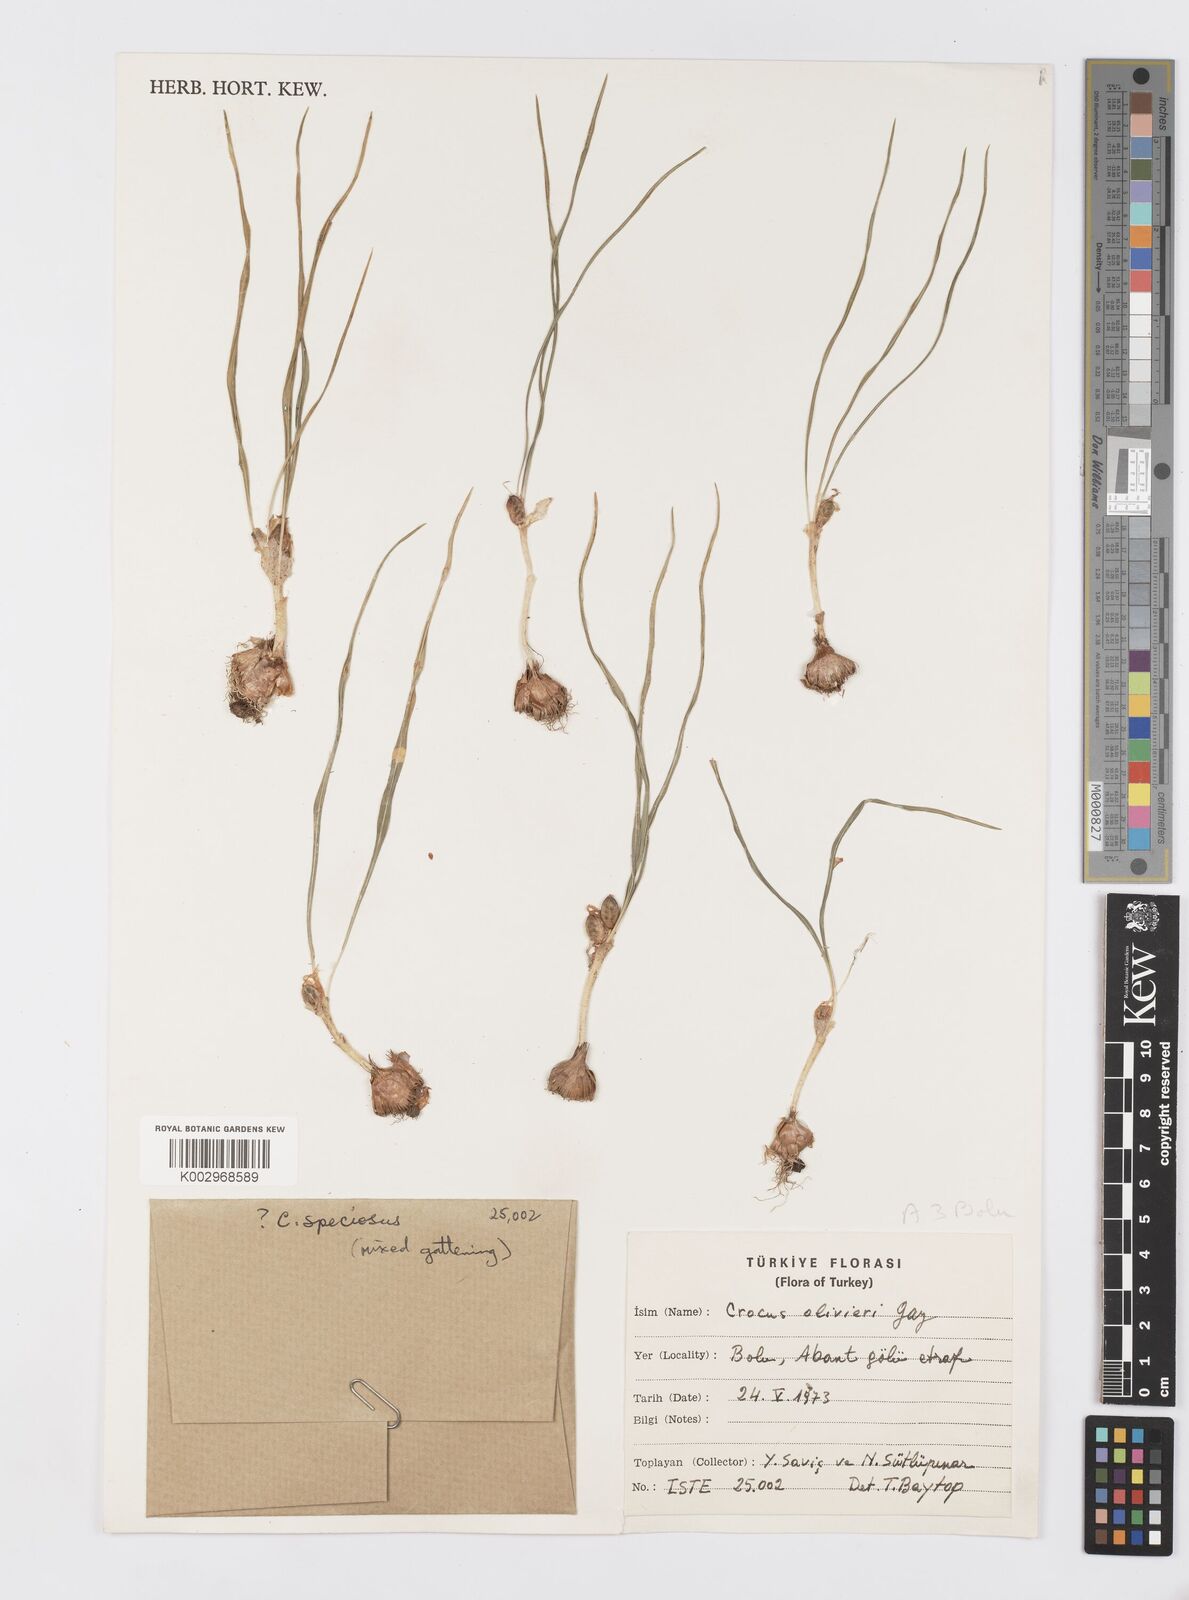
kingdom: Plantae
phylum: Tracheophyta
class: Liliopsida
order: Asparagales
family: Iridaceae
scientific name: Iridaceae
